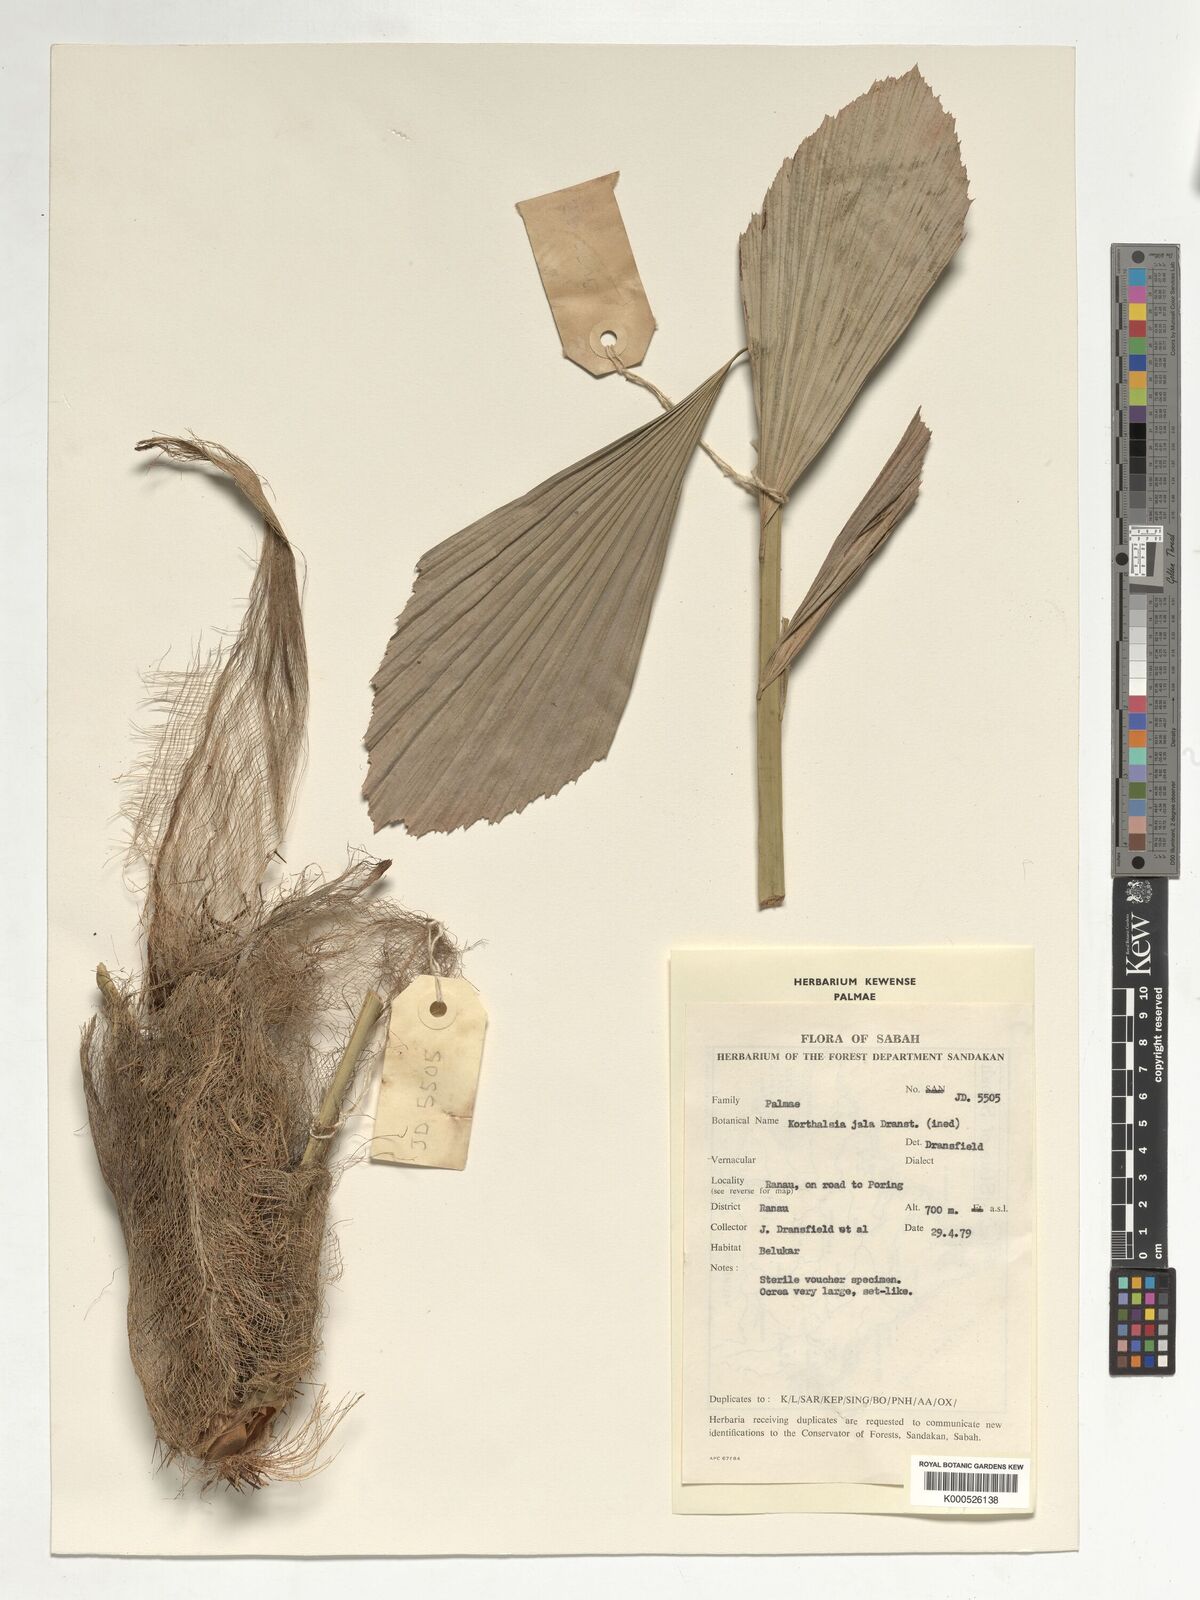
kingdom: Plantae
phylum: Tracheophyta
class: Liliopsida
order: Arecales
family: Arecaceae
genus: Korthalsia
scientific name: Korthalsia jala
